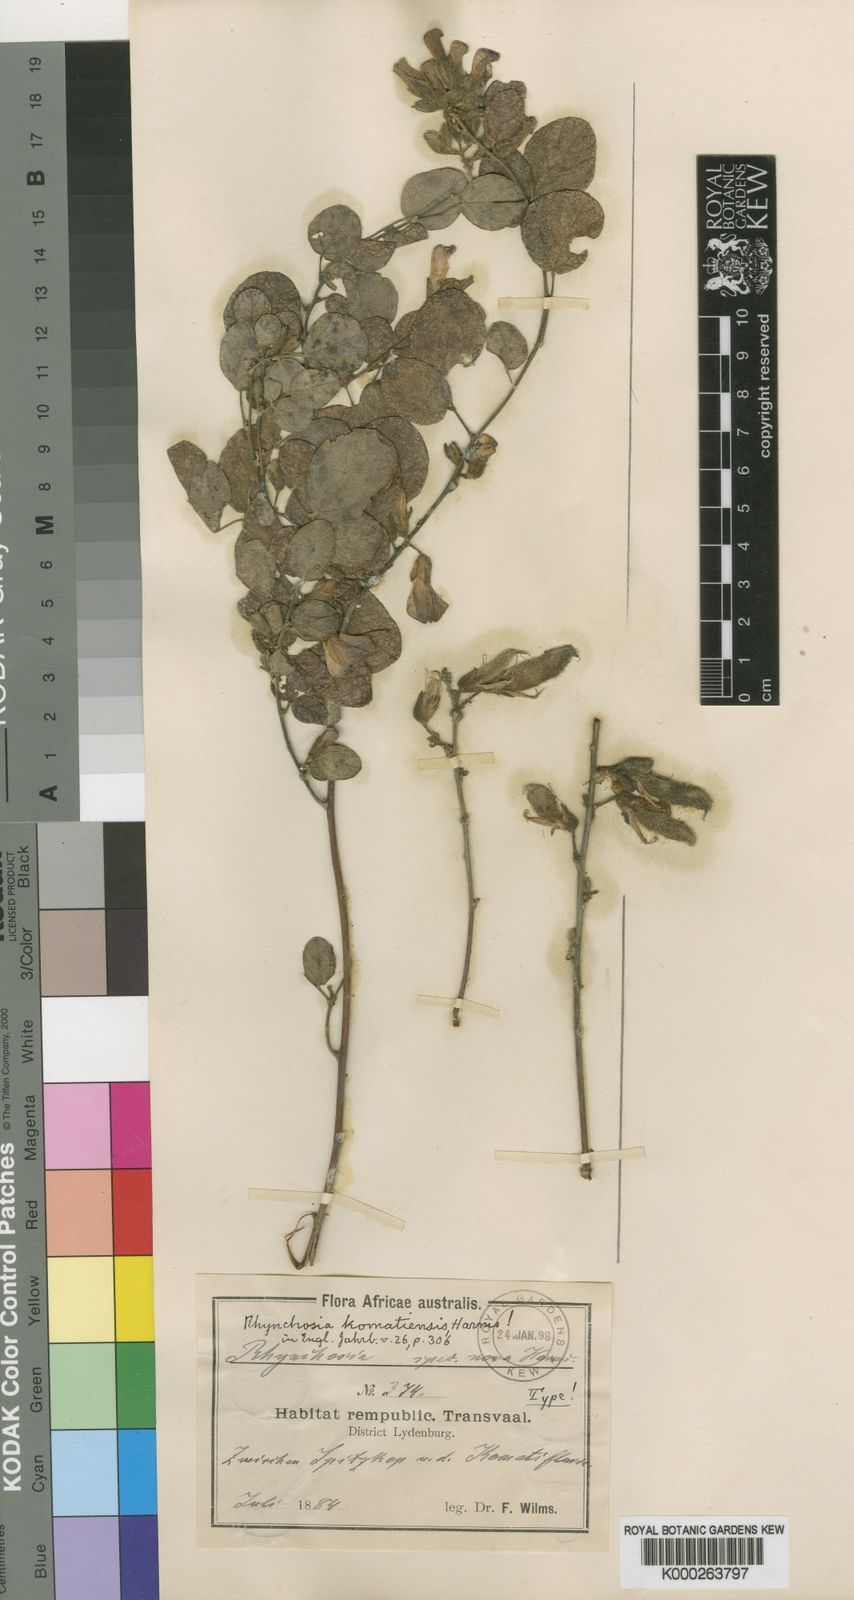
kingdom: Plantae
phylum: Tracheophyta
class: Magnoliopsida
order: Fabales
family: Fabaceae
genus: Rhynchosia
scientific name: Rhynchosia komatiensis
